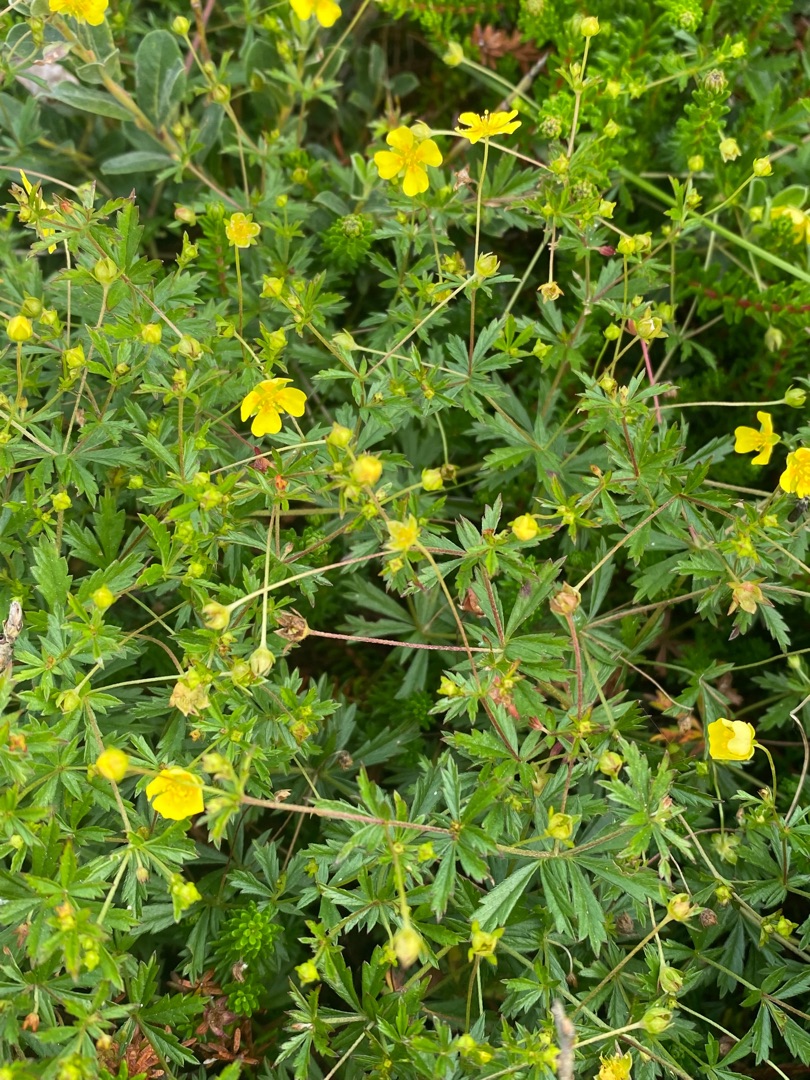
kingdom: Plantae
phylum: Tracheophyta
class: Magnoliopsida
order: Rosales
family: Rosaceae
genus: Potentilla
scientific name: Potentilla erecta
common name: Tormentil
